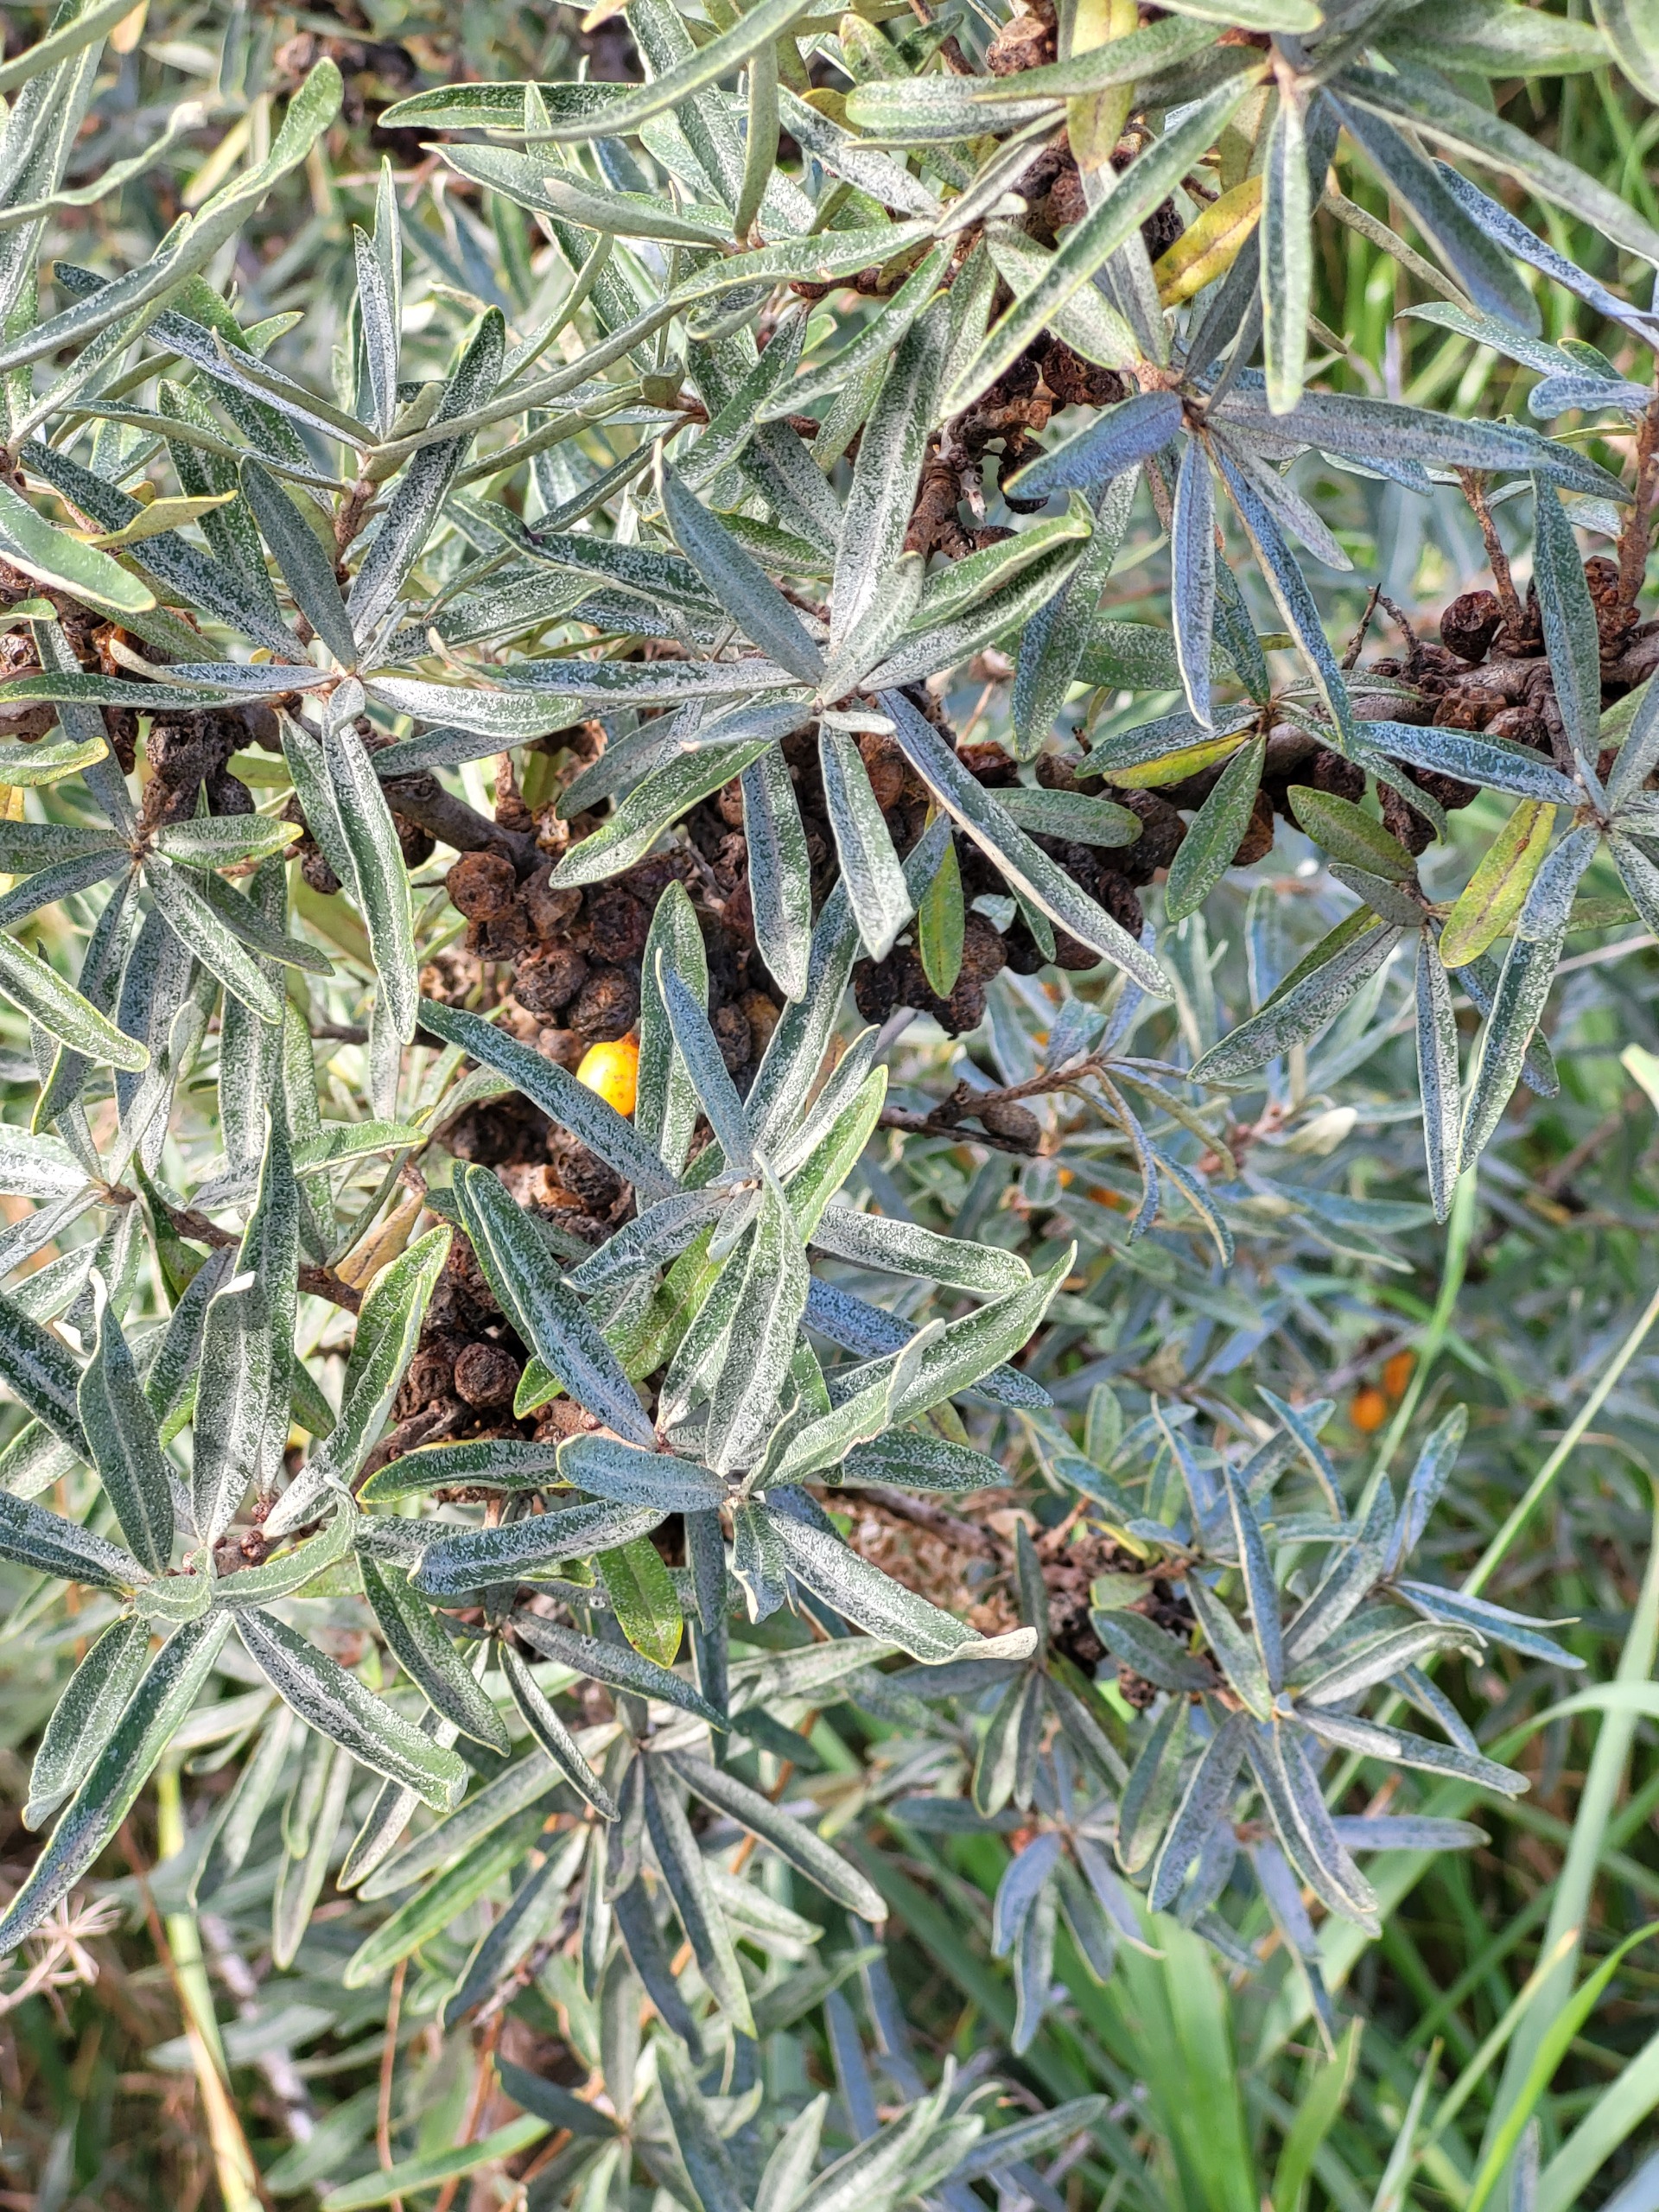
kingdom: Plantae
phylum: Tracheophyta
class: Magnoliopsida
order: Rosales
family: Elaeagnaceae
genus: Hippophae
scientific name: Hippophae rhamnoides
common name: Havtorn
